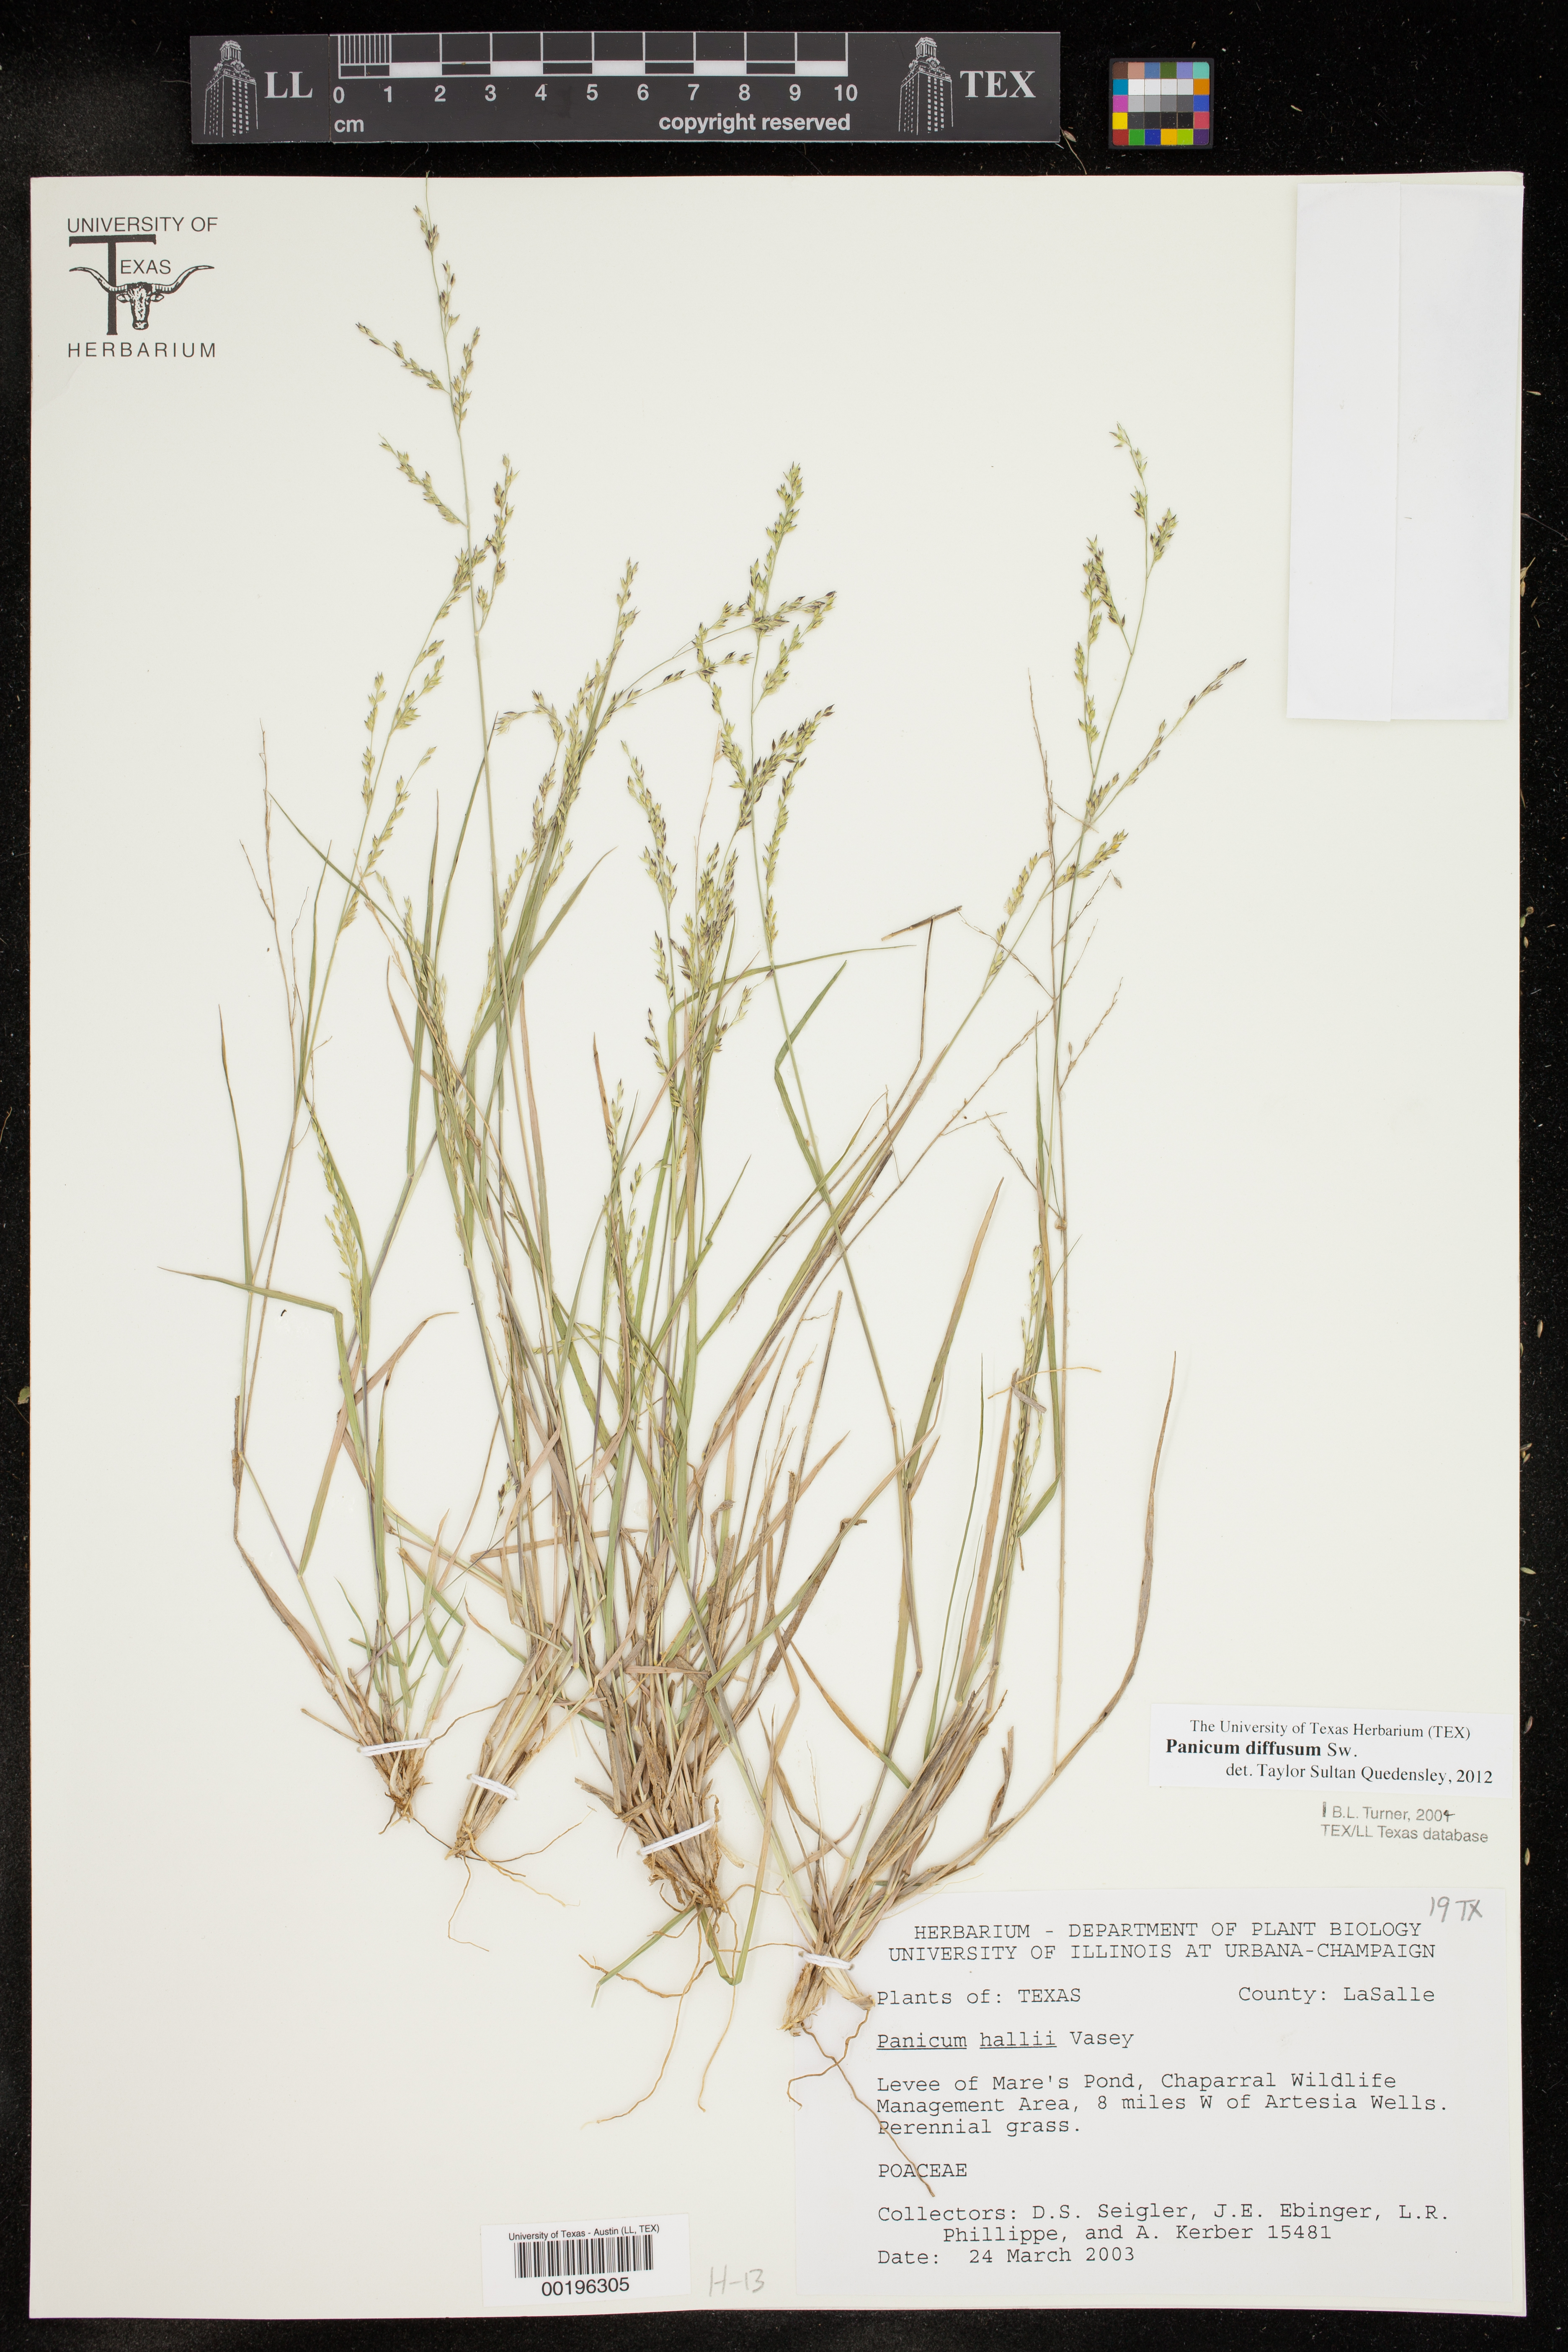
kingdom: Plantae
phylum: Tracheophyta
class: Liliopsida
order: Poales
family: Poaceae
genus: Panicum
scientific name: Panicum diffusum
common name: Spreading panicgrass
